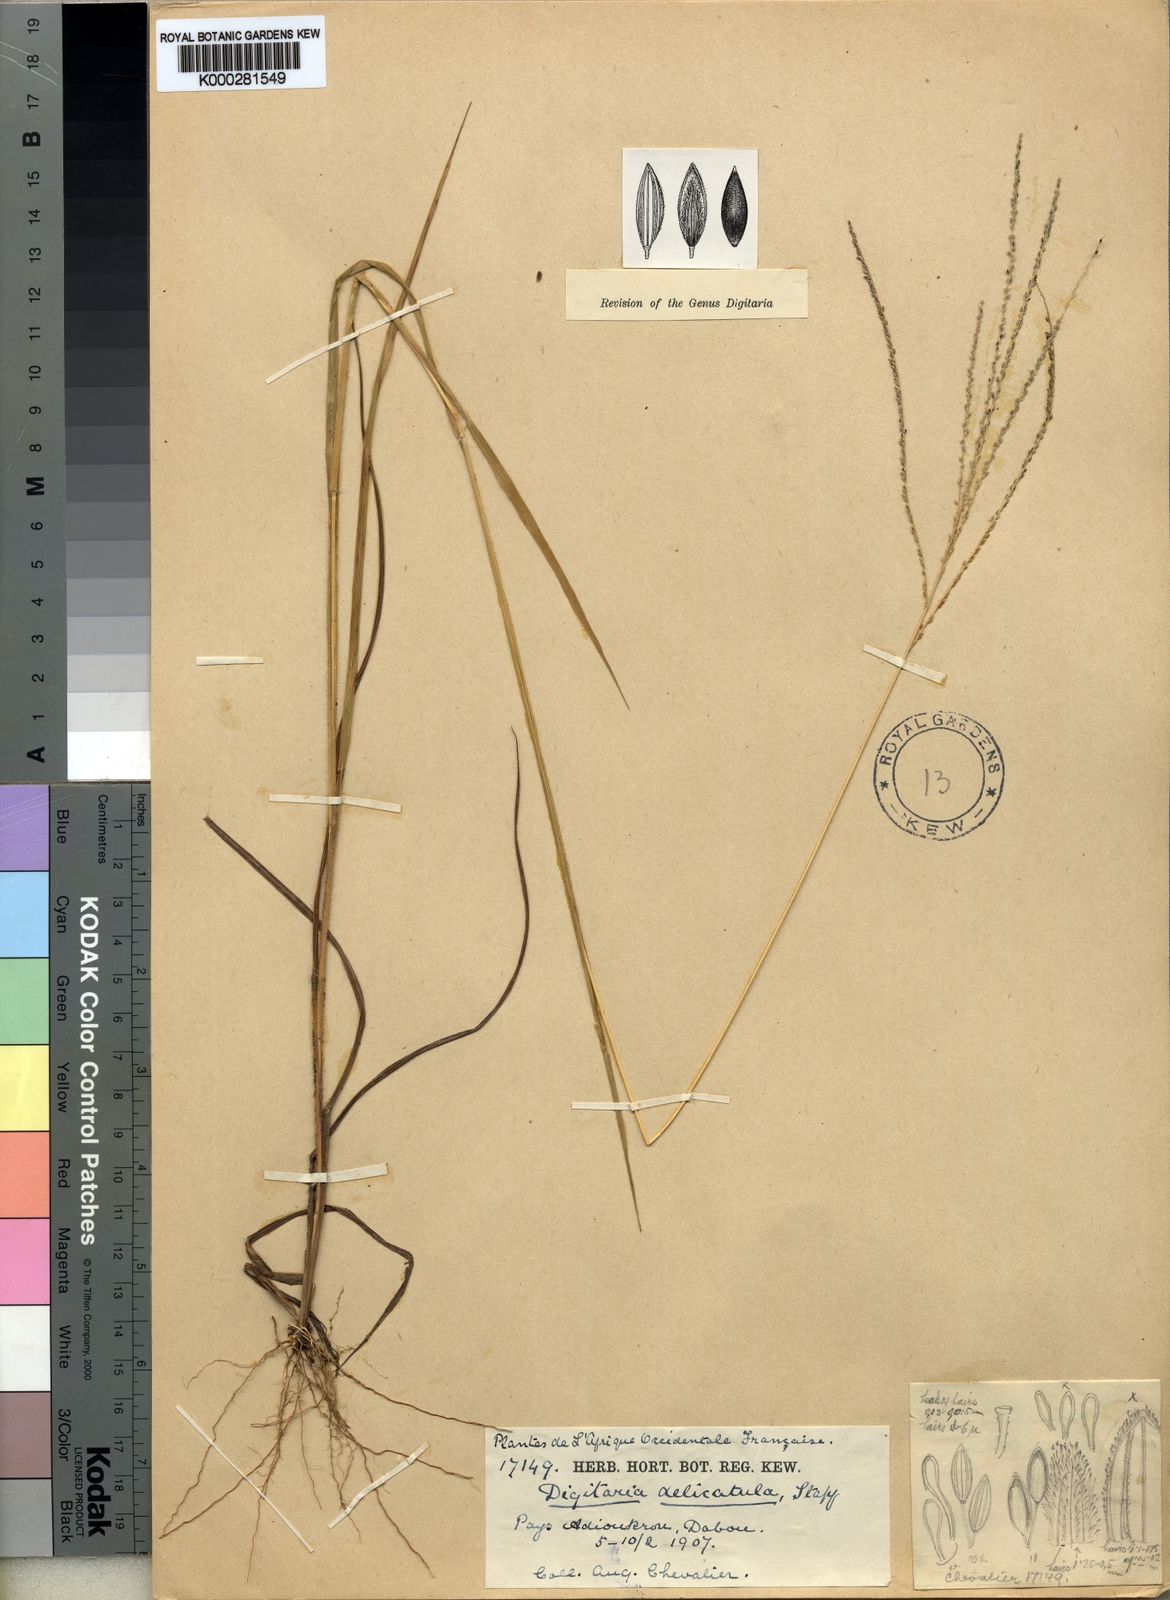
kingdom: Plantae
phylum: Tracheophyta
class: Liliopsida
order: Poales
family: Poaceae
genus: Digitaria
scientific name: Digitaria
